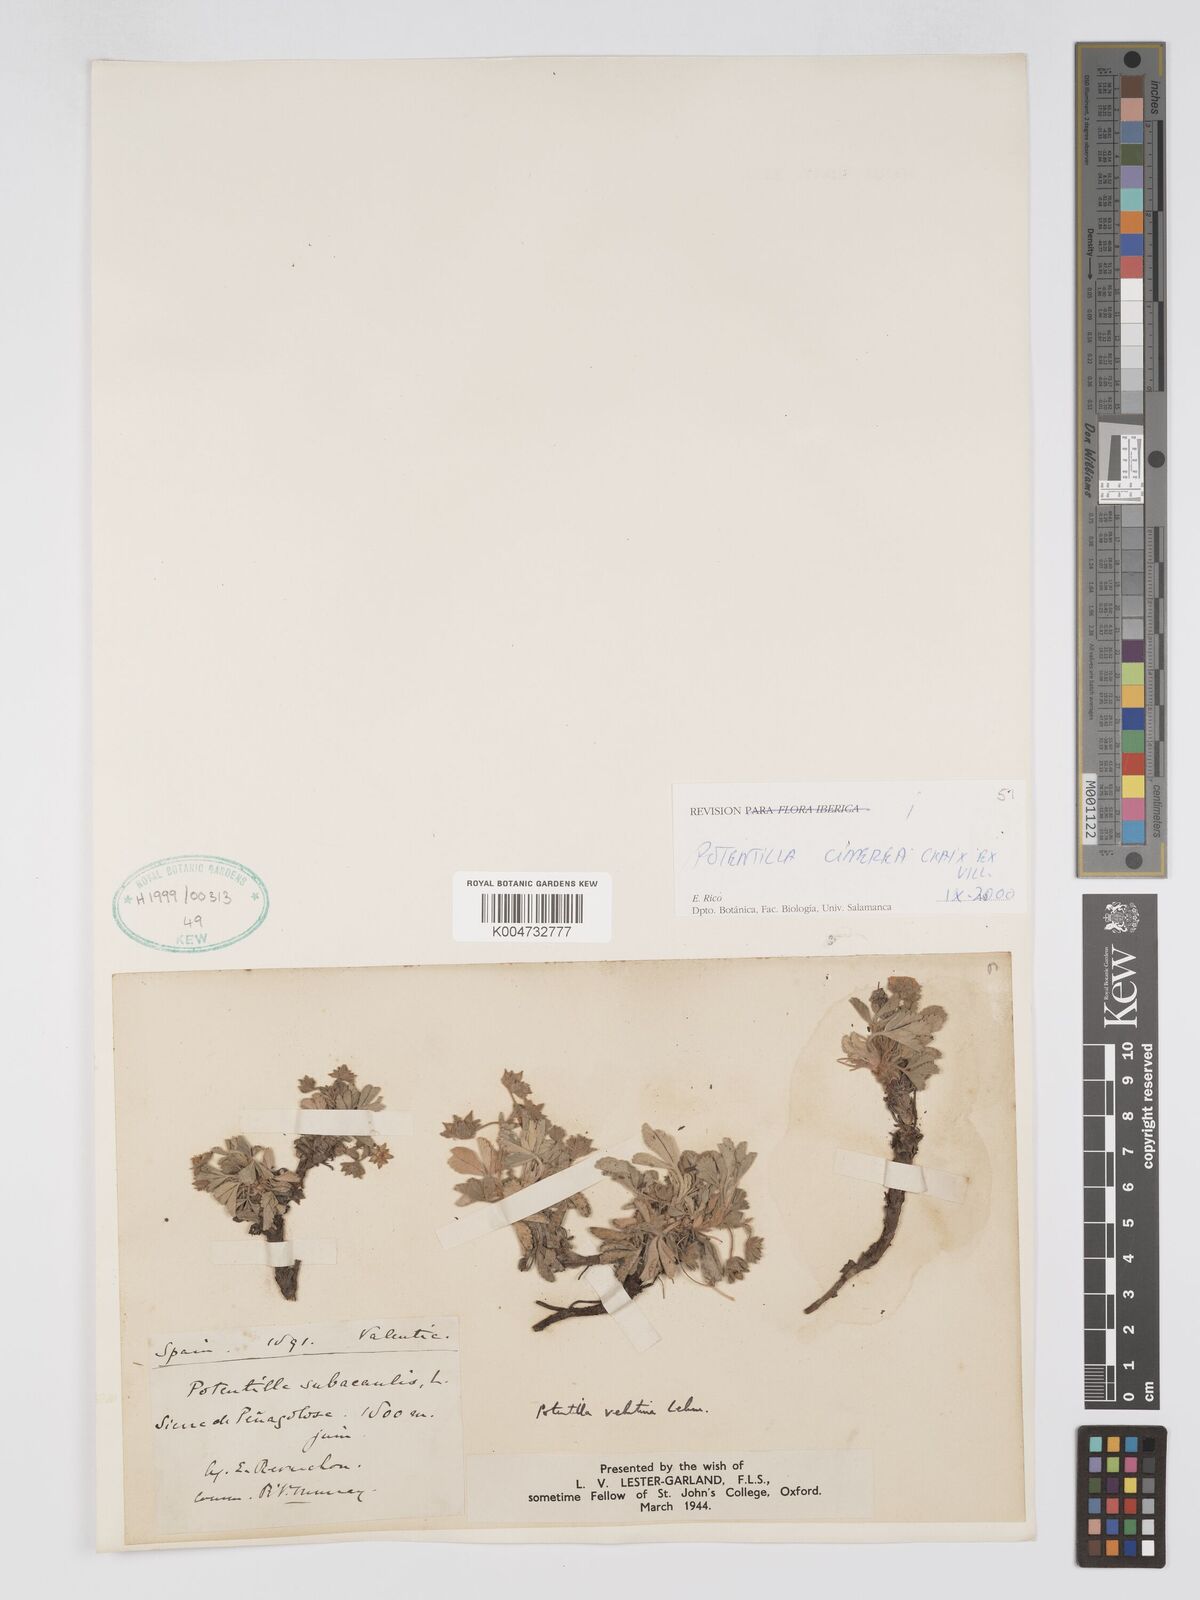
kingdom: Plantae
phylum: Tracheophyta
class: Magnoliopsida
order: Rosales
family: Rosaceae
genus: Potentilla
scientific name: Potentilla
